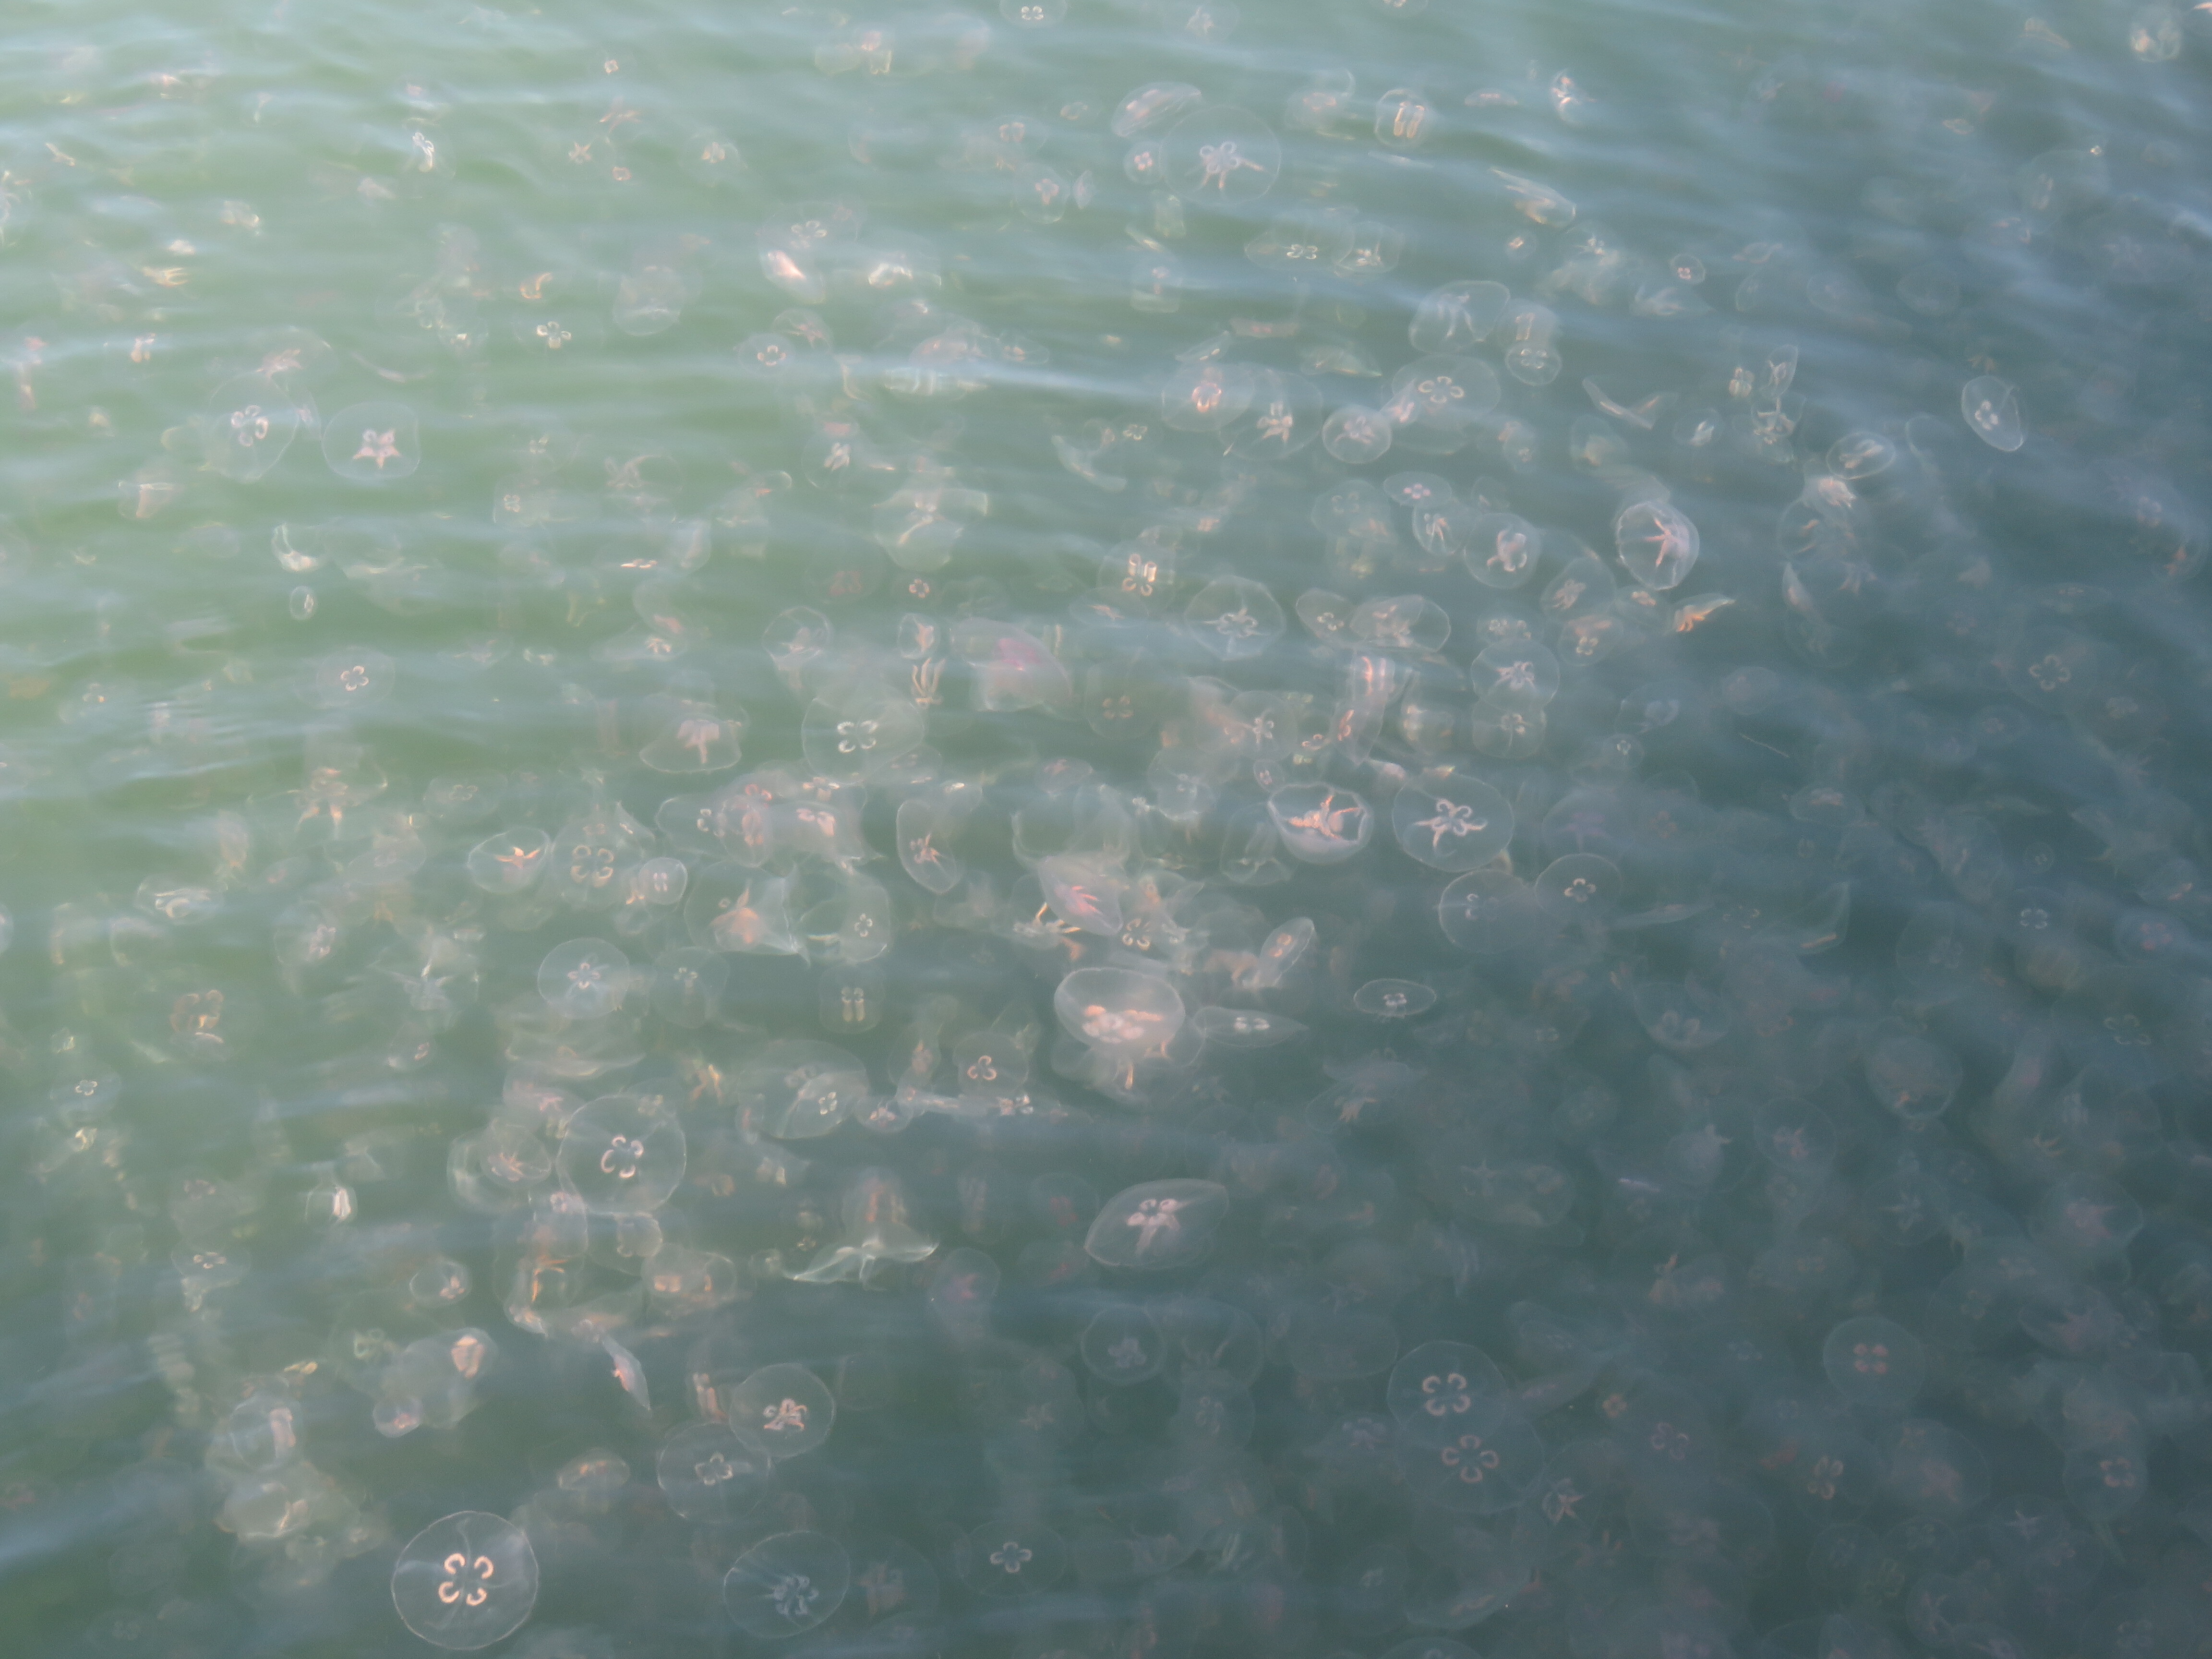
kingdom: Animalia
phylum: Cnidaria
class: Scyphozoa
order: Semaeostomeae
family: Ulmaridae
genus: Aurelia
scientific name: Aurelia aurita
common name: Moon jellyfish
